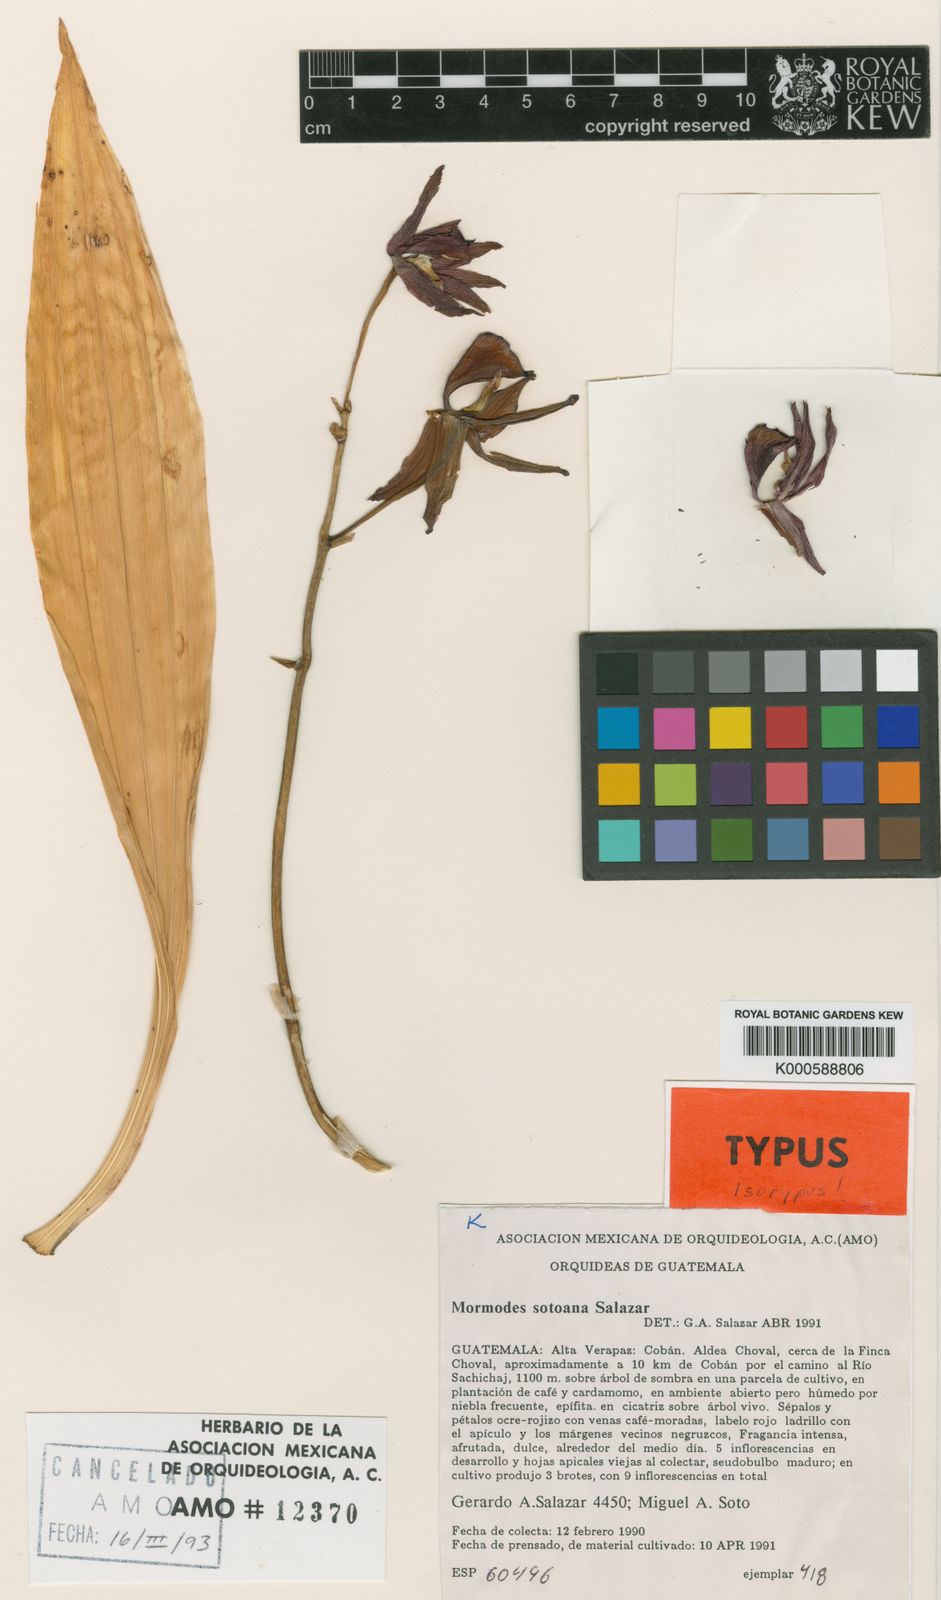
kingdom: Plantae
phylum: Tracheophyta
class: Liliopsida
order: Asparagales
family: Orchidaceae
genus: Mormodes
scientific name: Mormodes sotoana
